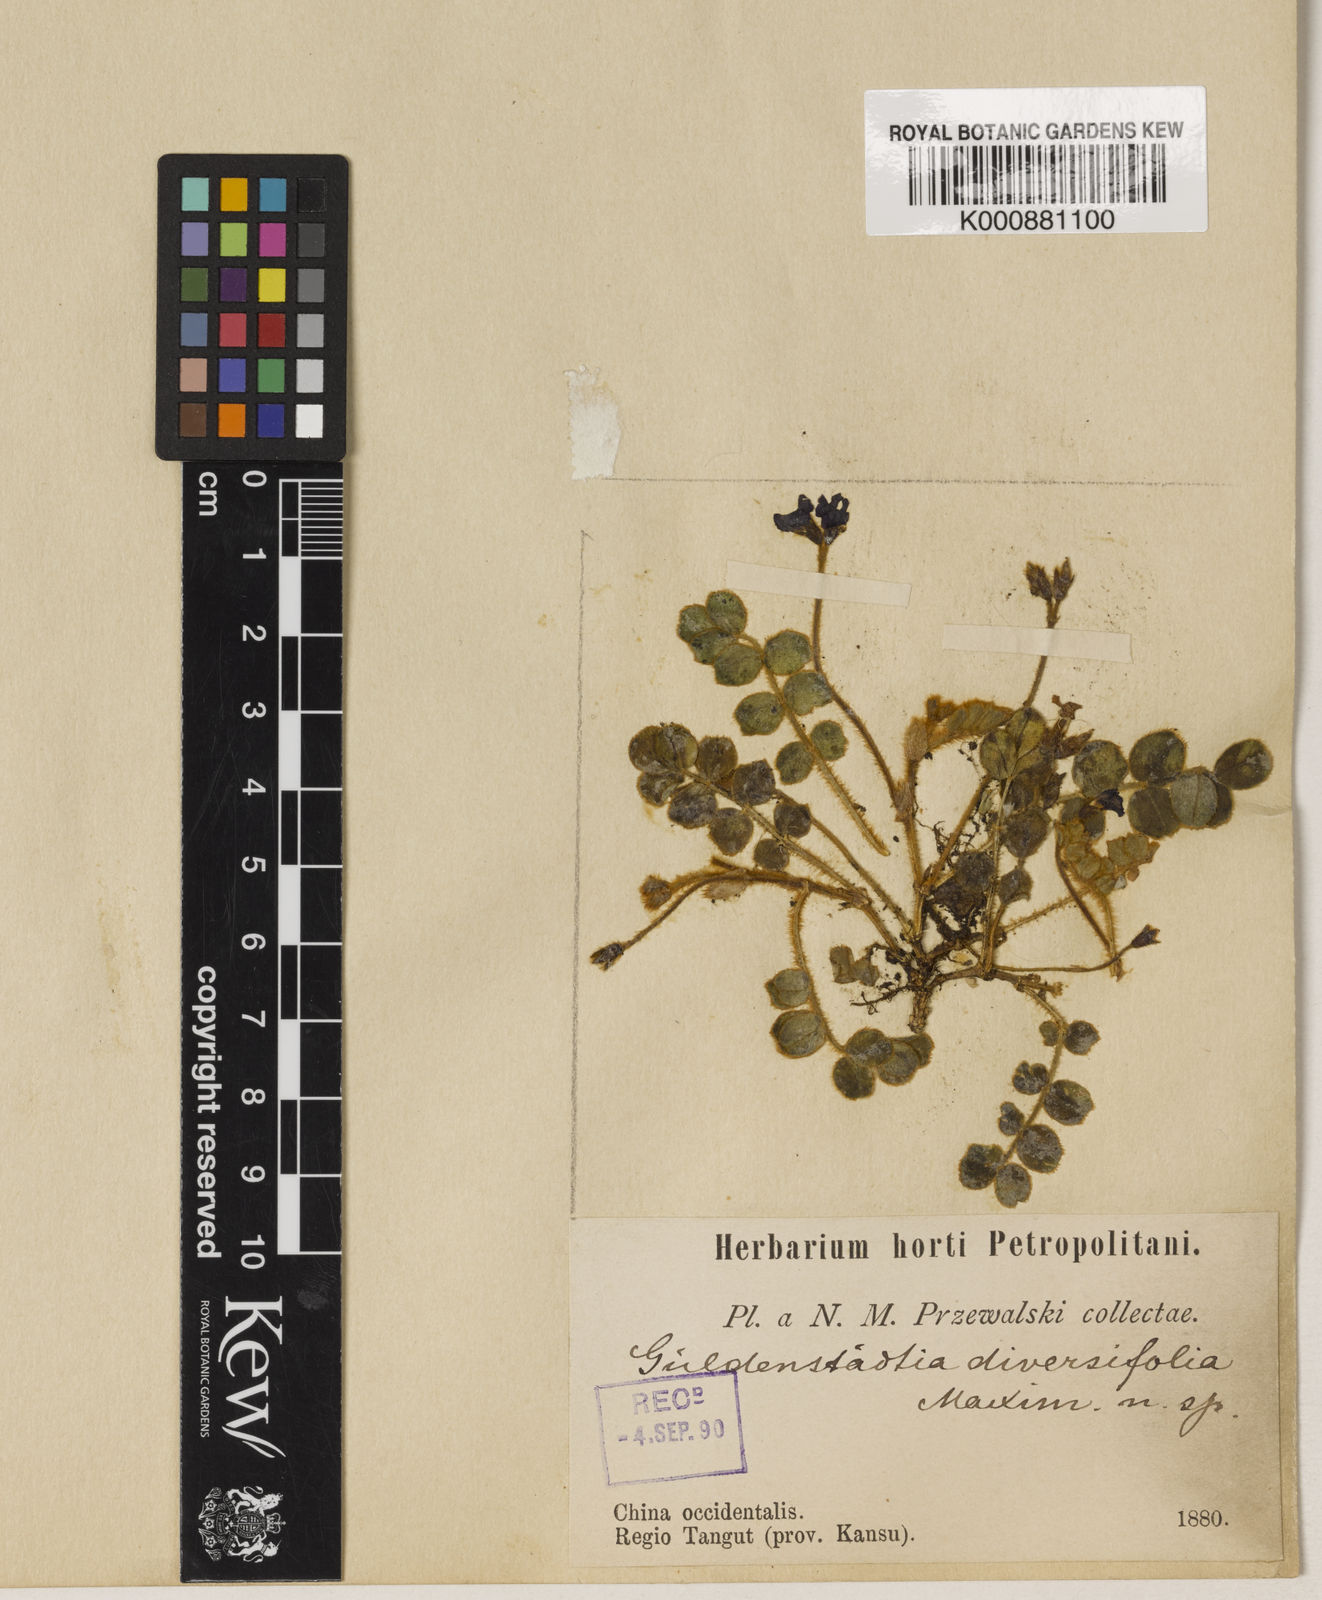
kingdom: Plantae
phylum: Tracheophyta
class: Magnoliopsida
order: Fabales
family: Fabaceae
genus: Tibetia
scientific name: Tibetia himalaica
